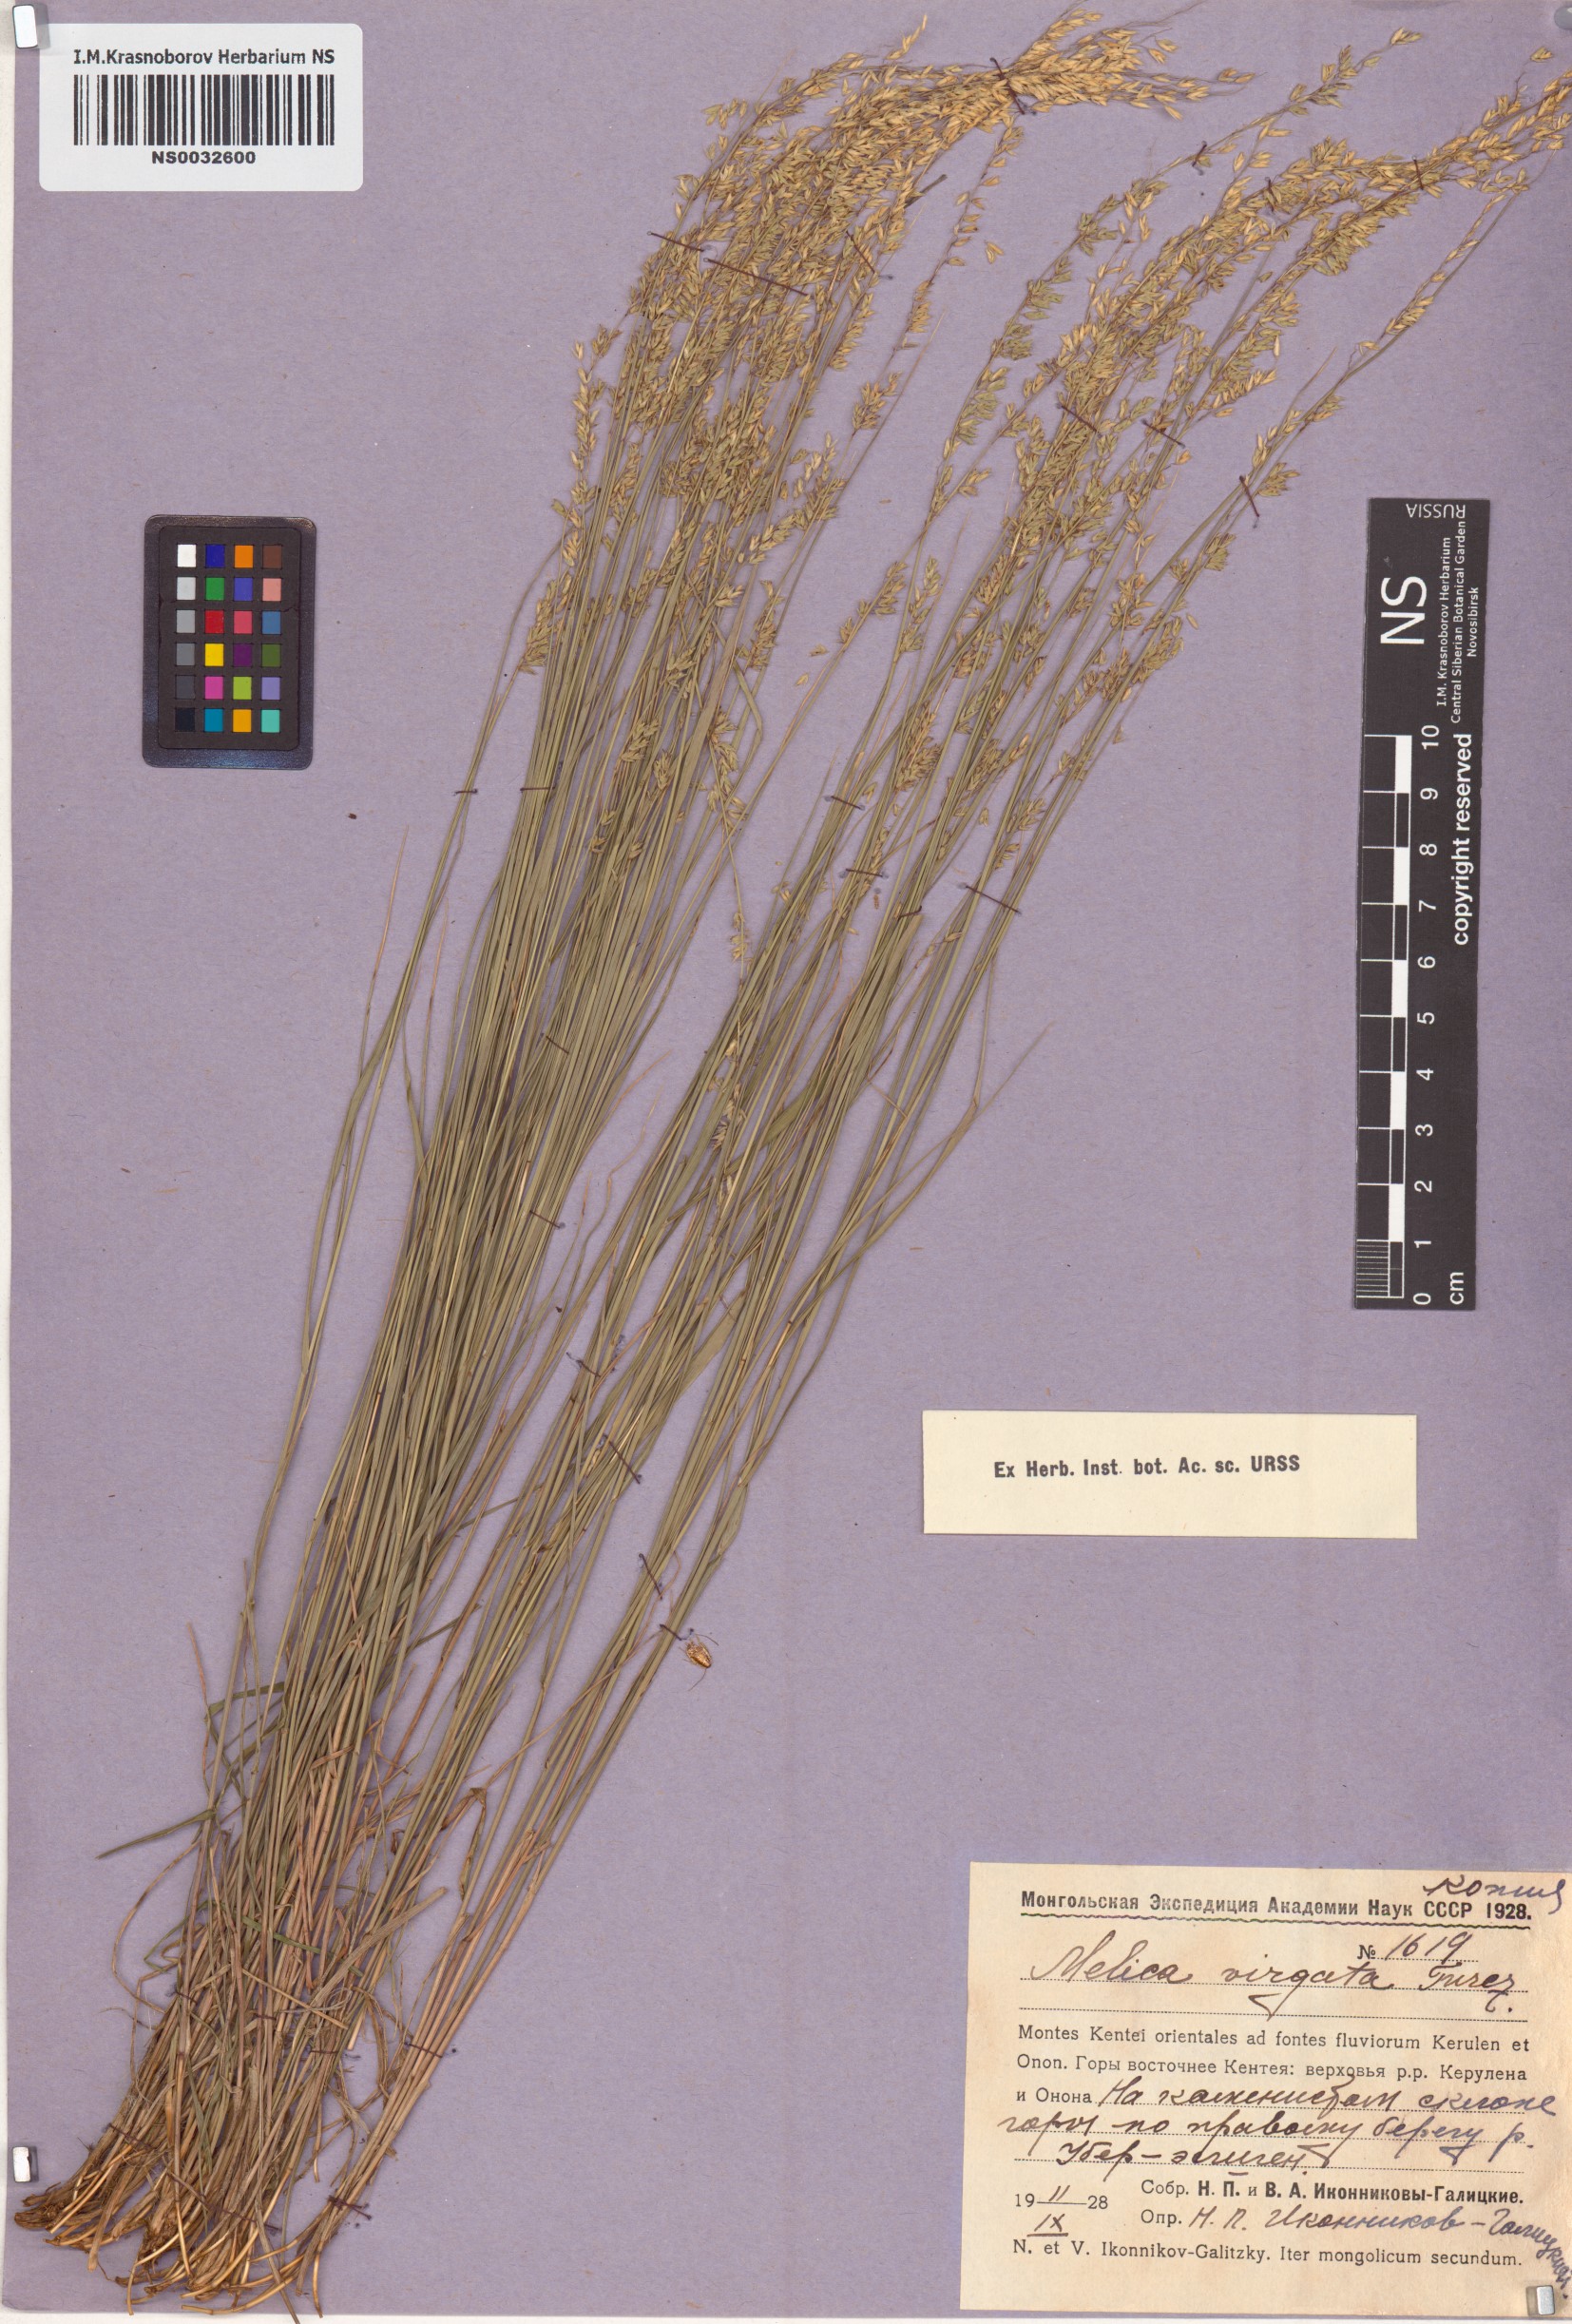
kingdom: Plantae
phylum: Tracheophyta
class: Liliopsida
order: Poales
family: Poaceae
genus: Melica
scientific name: Melica virgata
